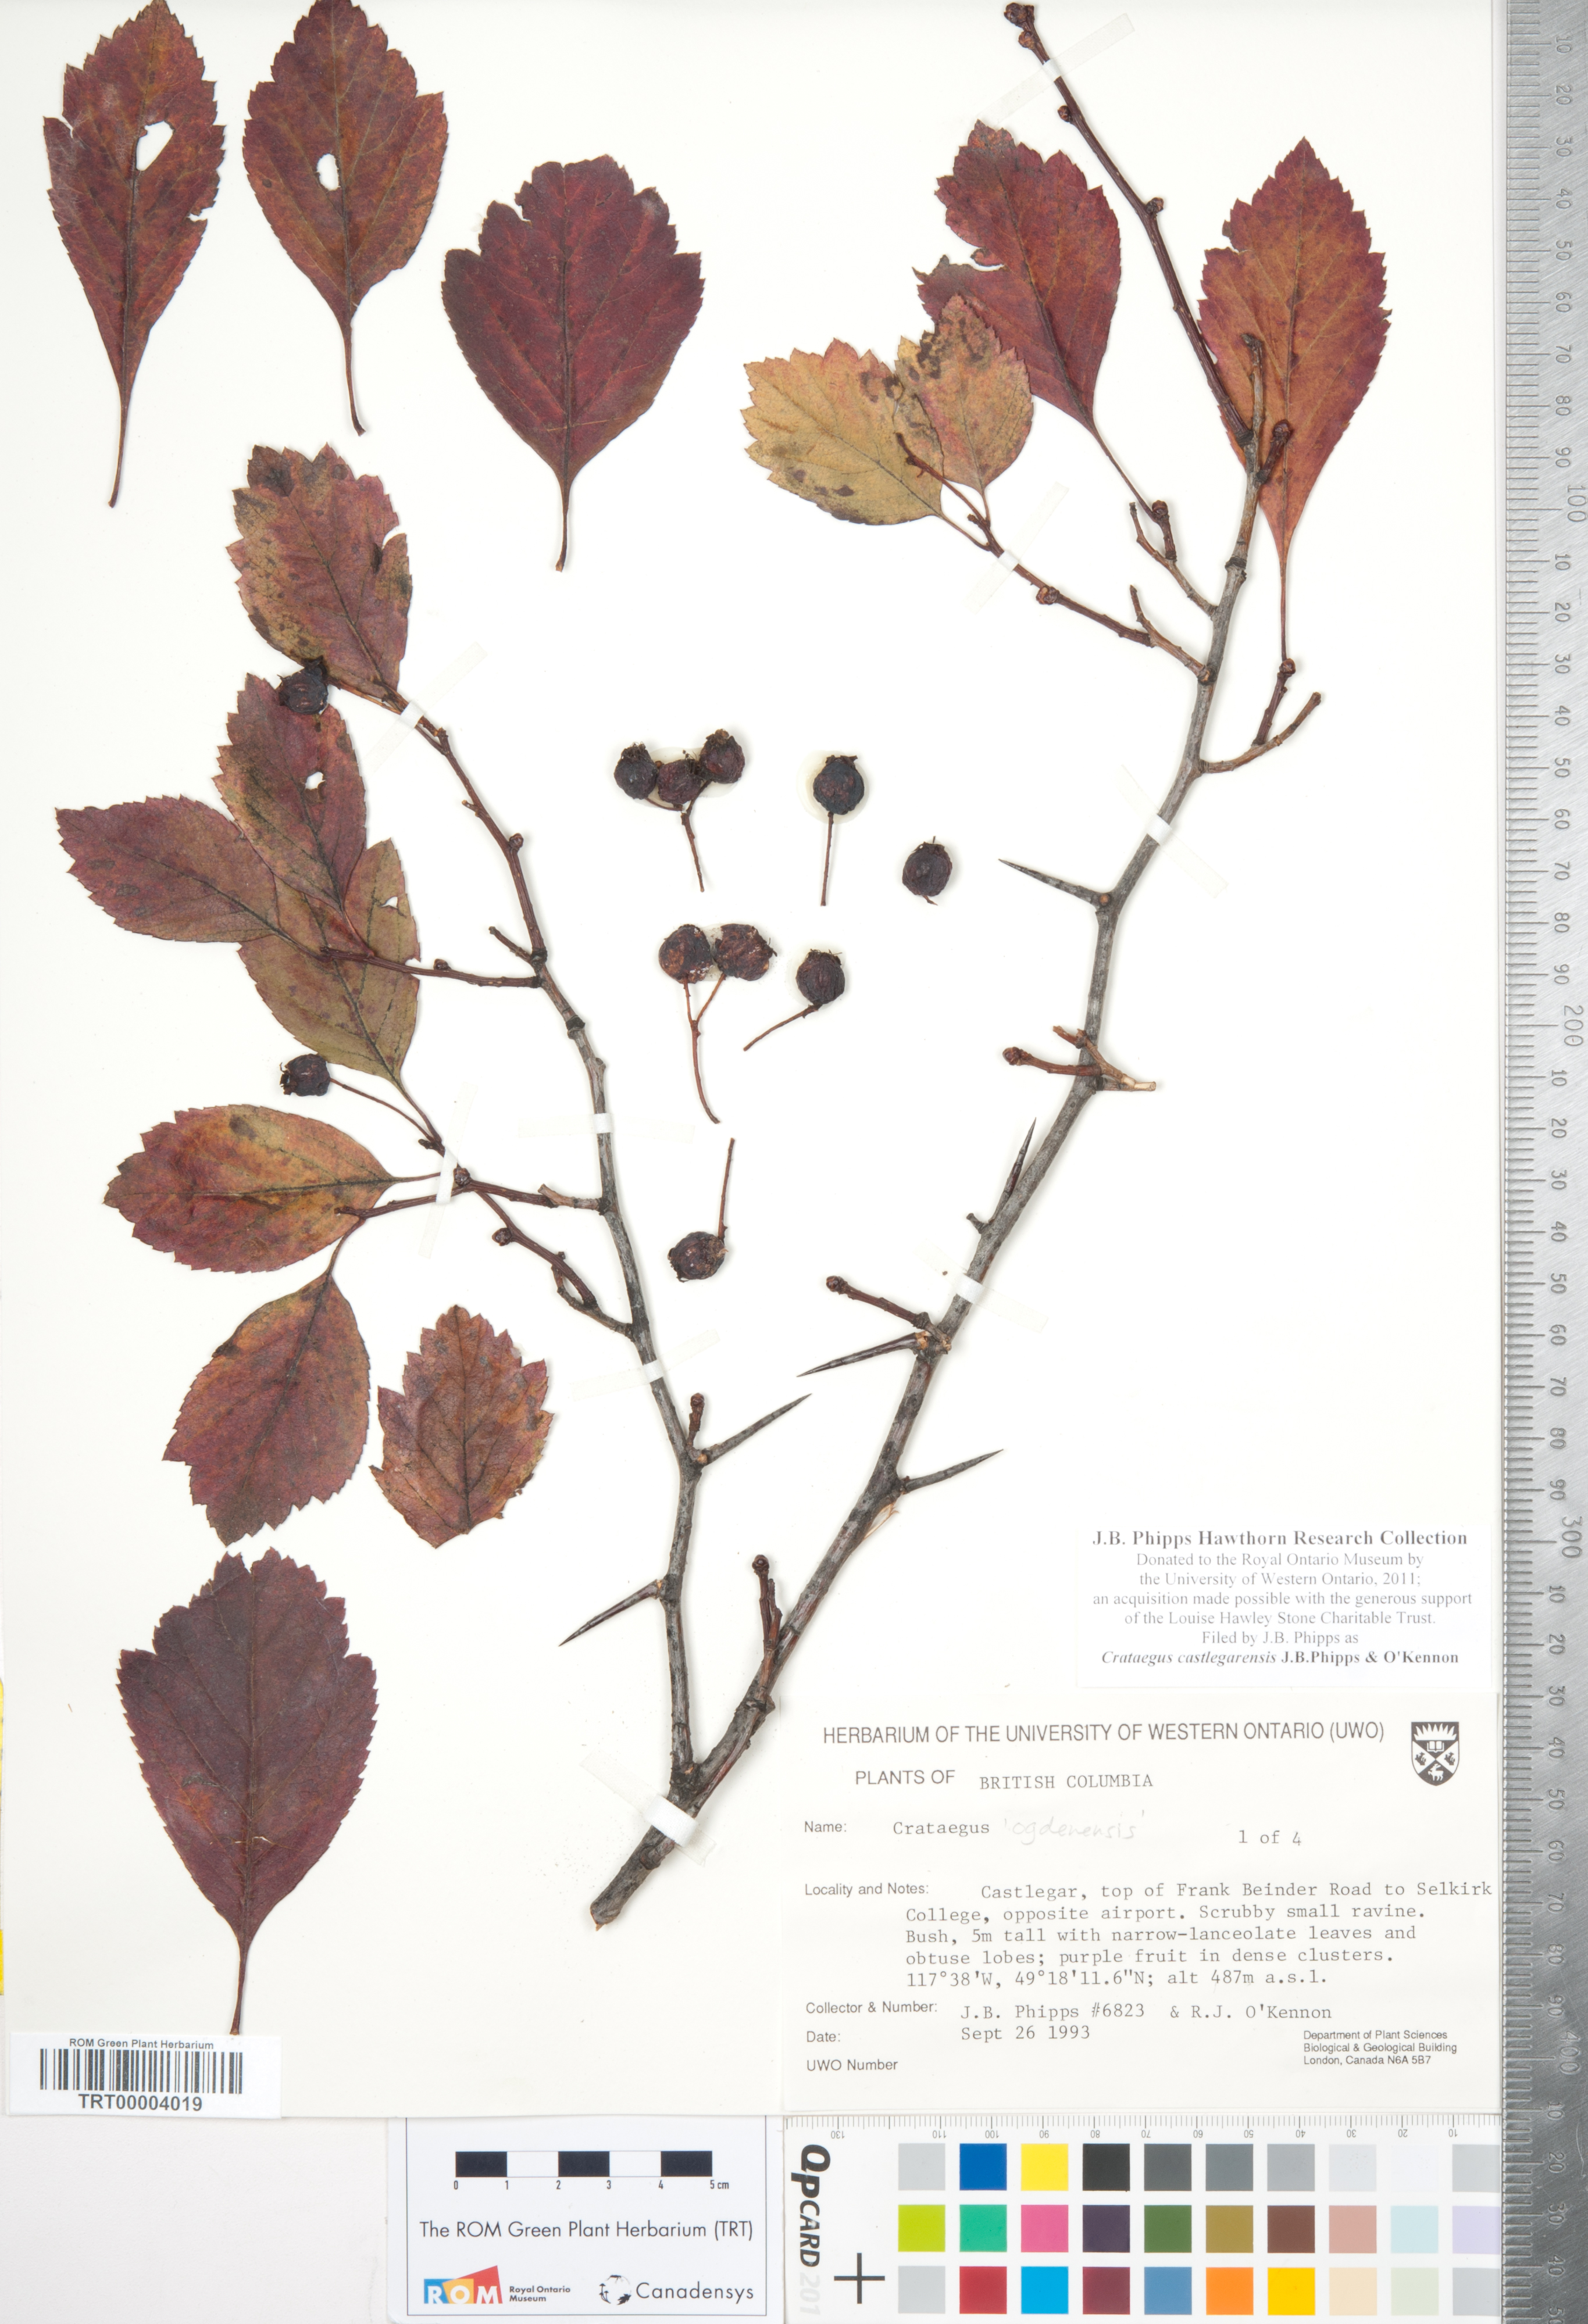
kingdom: Plantae
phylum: Tracheophyta
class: Magnoliopsida
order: Rosales
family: Rosaceae
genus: Crataegus
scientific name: Crataegus castlegarensis
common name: Castlegar hawthorn
